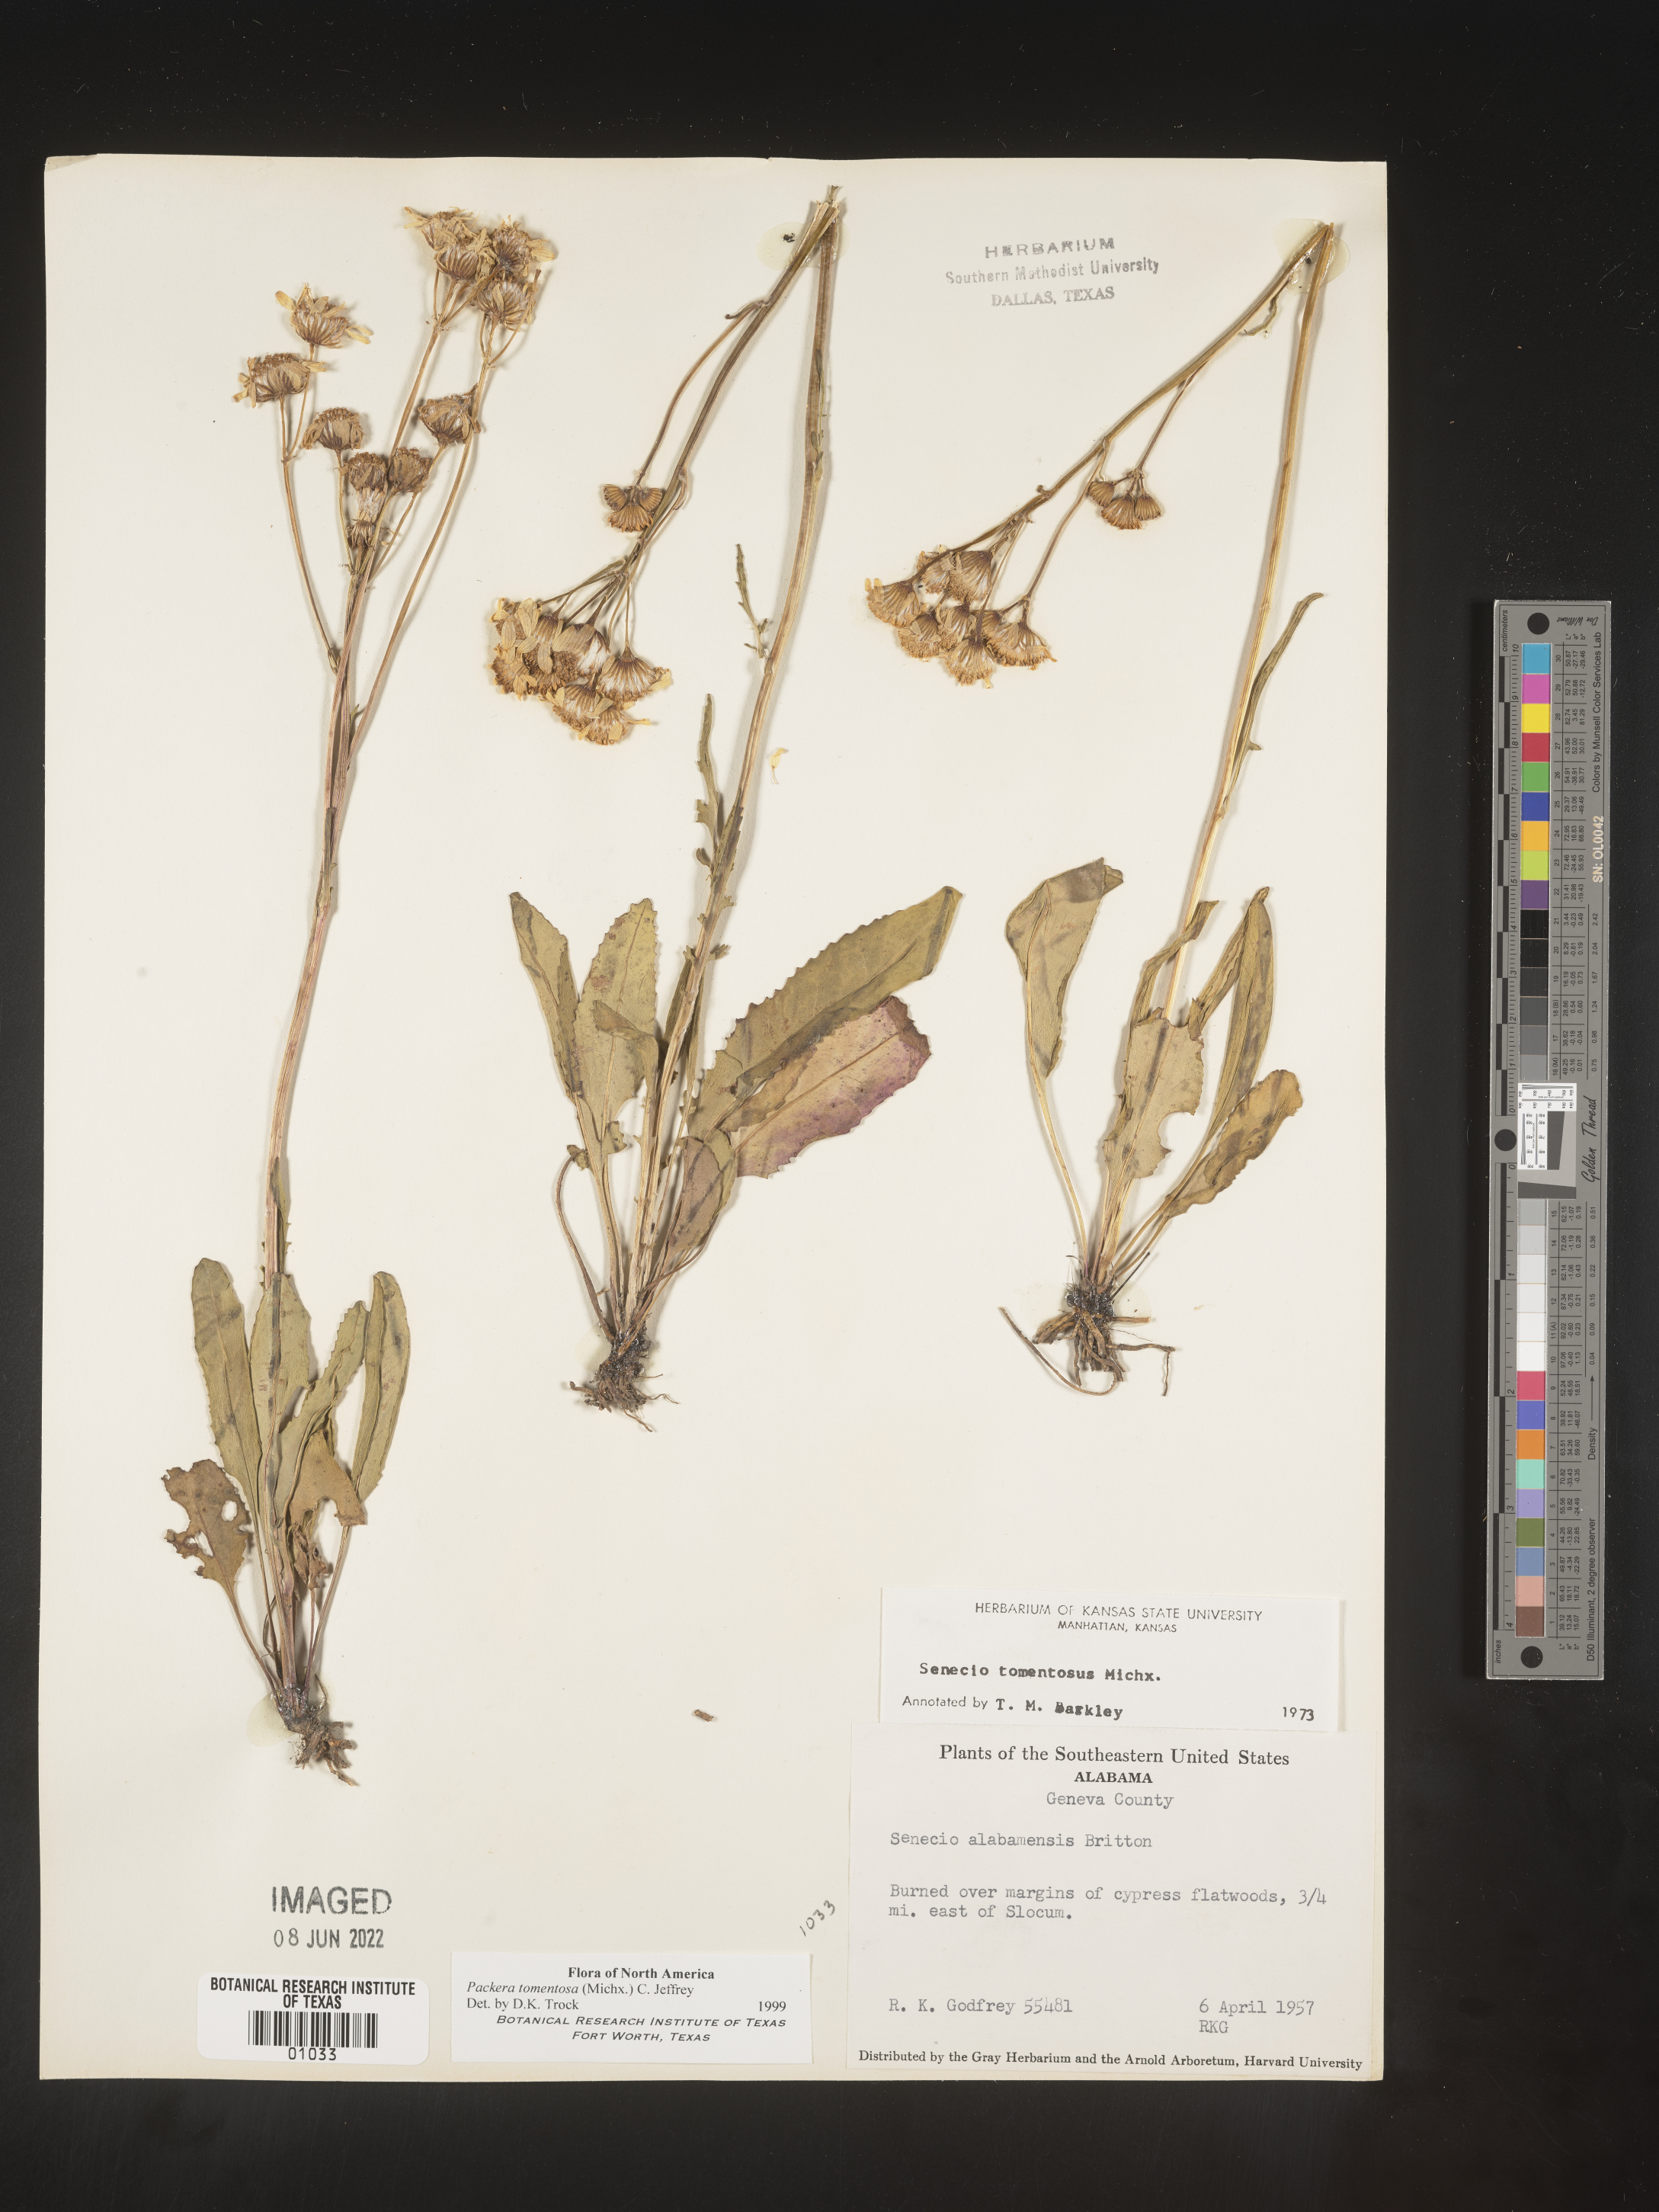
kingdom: Plantae
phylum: Tracheophyta
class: Magnoliopsida
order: Asterales
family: Asteraceae
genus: Packera
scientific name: Packera dubia
